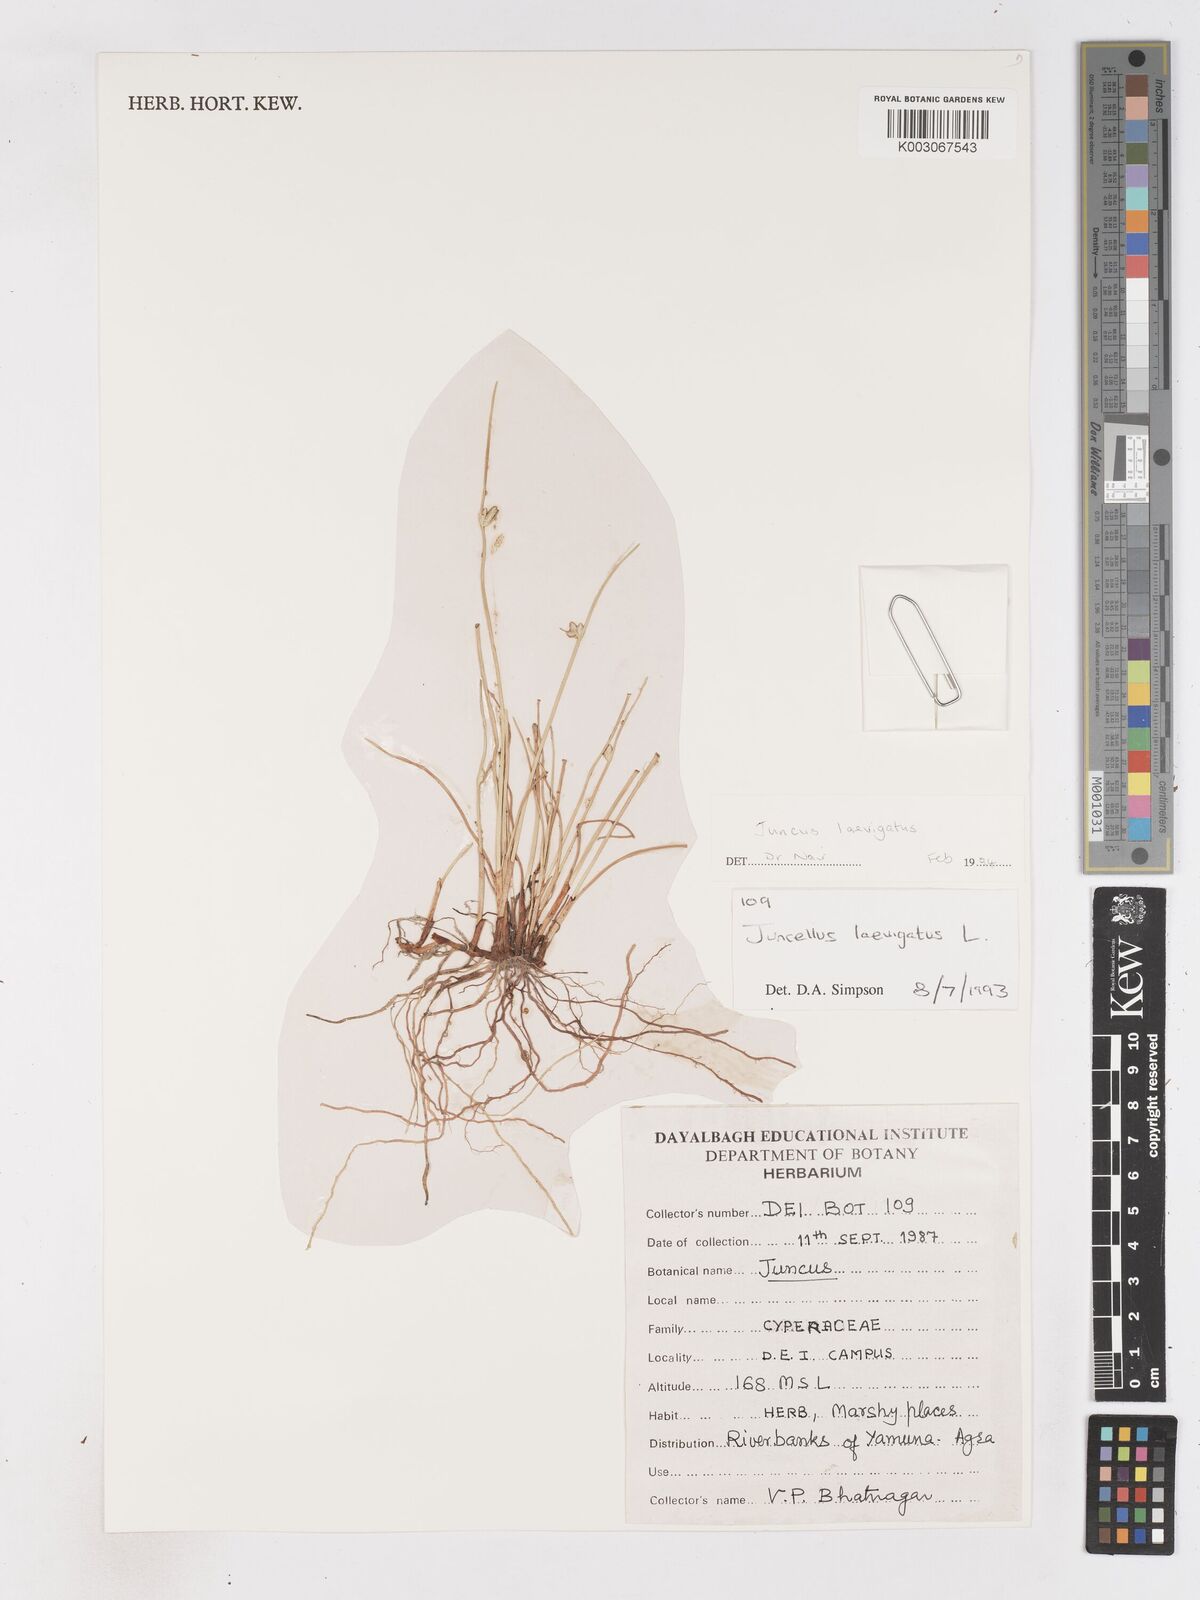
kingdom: Plantae
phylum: Tracheophyta
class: Liliopsida
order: Poales
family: Cyperaceae
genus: Cyperus
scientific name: Cyperus laevigatus
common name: Smooth flat sedge
